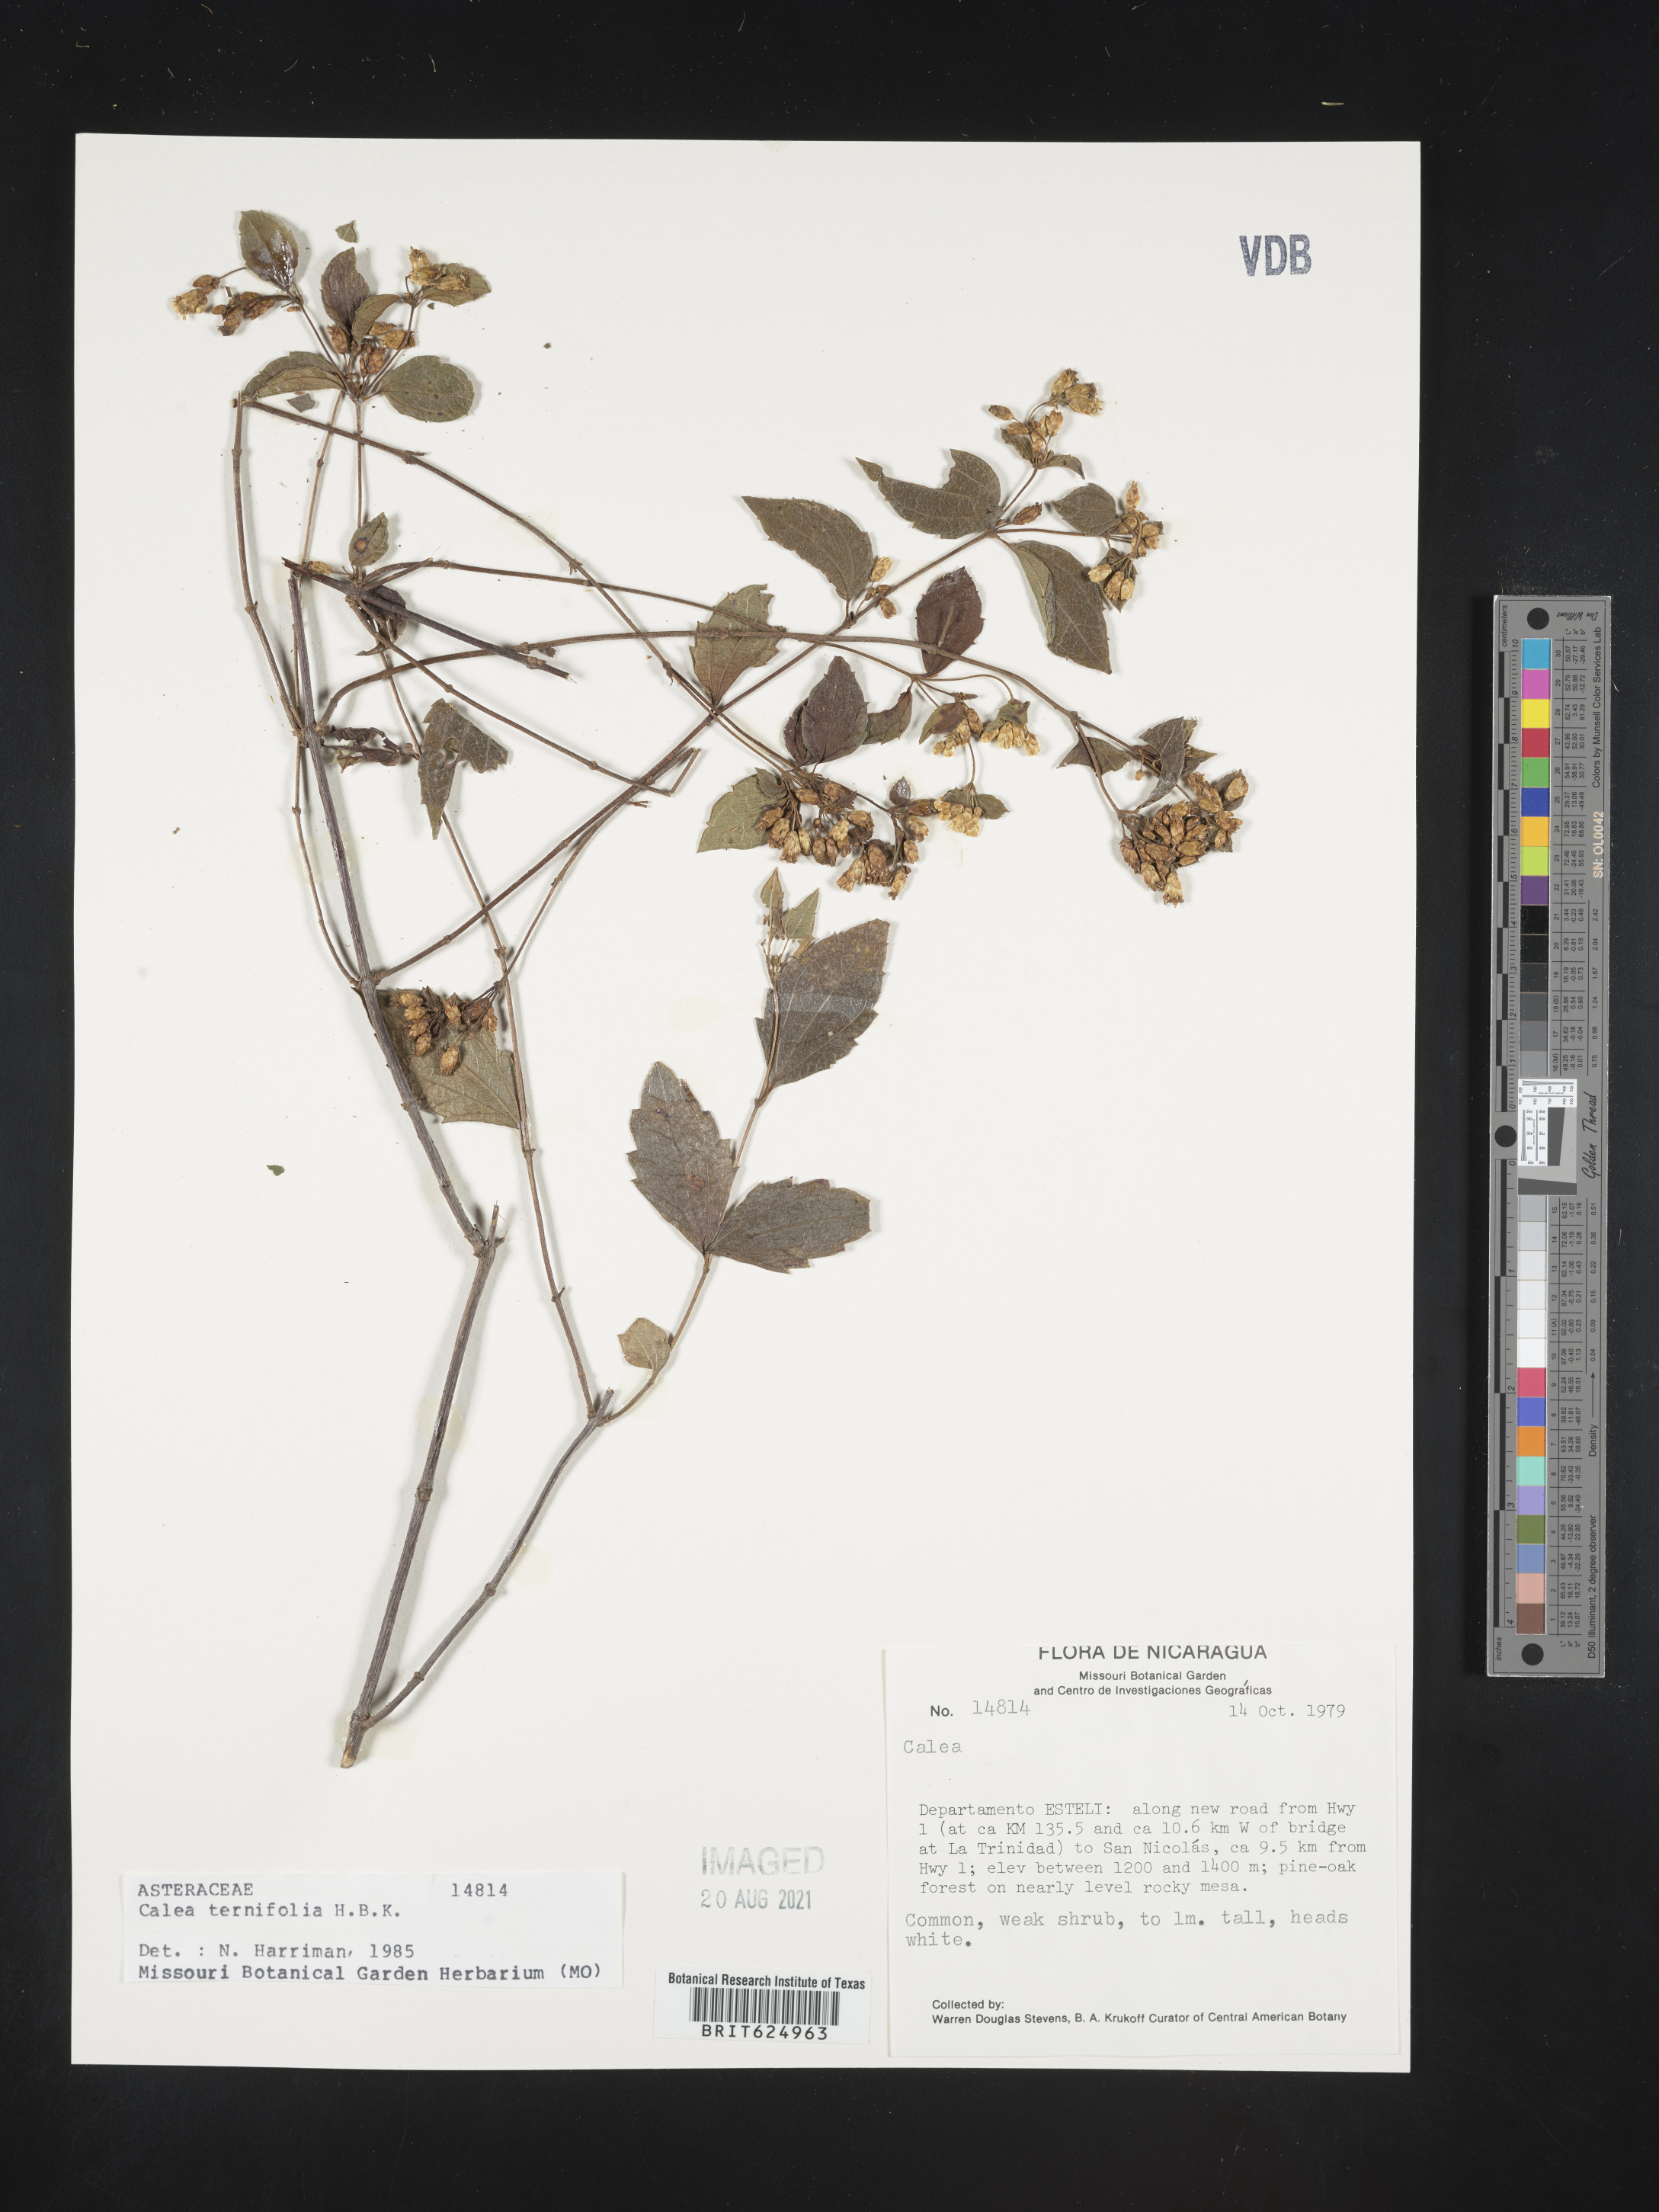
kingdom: Plantae
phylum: Tracheophyta
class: Magnoliopsida
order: Asterales
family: Asteraceae
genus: Calea
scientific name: Calea oliveri
